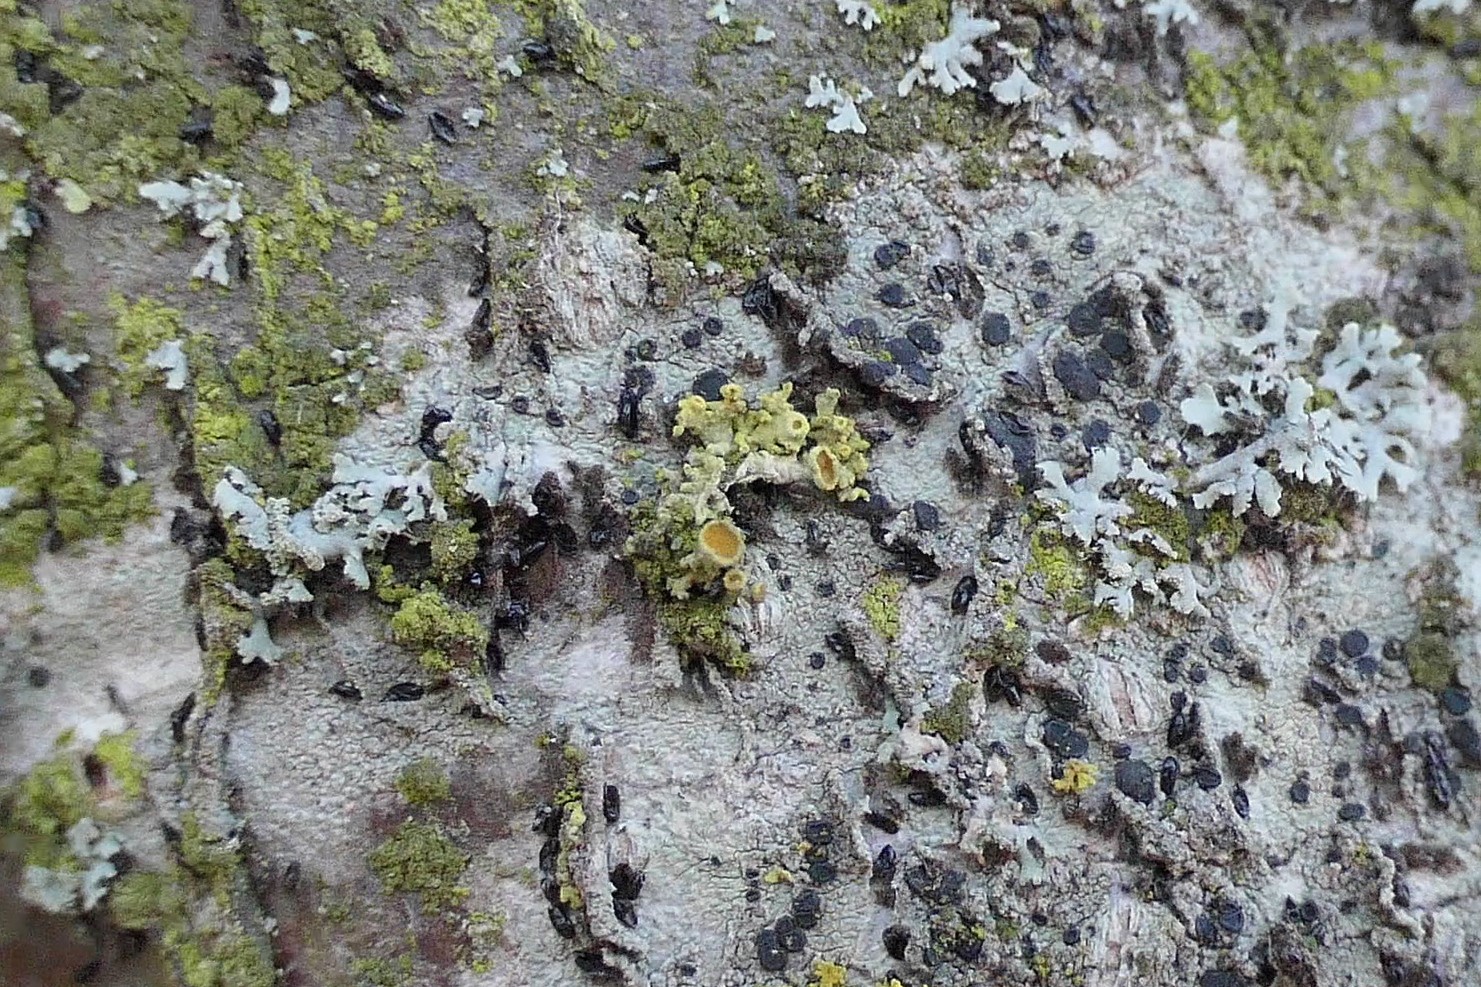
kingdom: Fungi
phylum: Ascomycota
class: Lecanoromycetes
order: Teloschistales
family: Teloschistaceae
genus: Polycauliona
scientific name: Polycauliona polycarpa
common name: mangefrugtet orangelav
